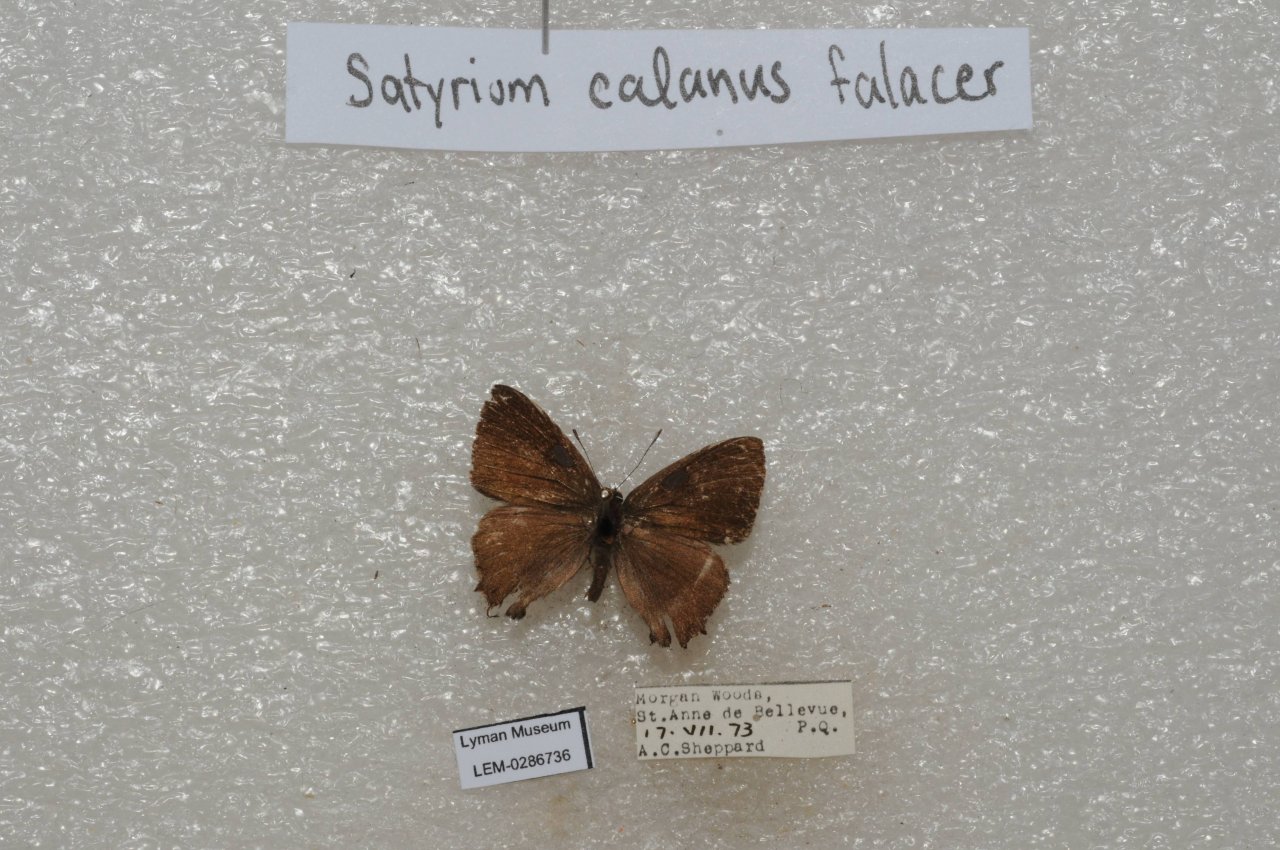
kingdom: Animalia
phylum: Arthropoda
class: Insecta
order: Lepidoptera
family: Lycaenidae
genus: Satyrium
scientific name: Satyrium calanus
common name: Banded Hairstreak
